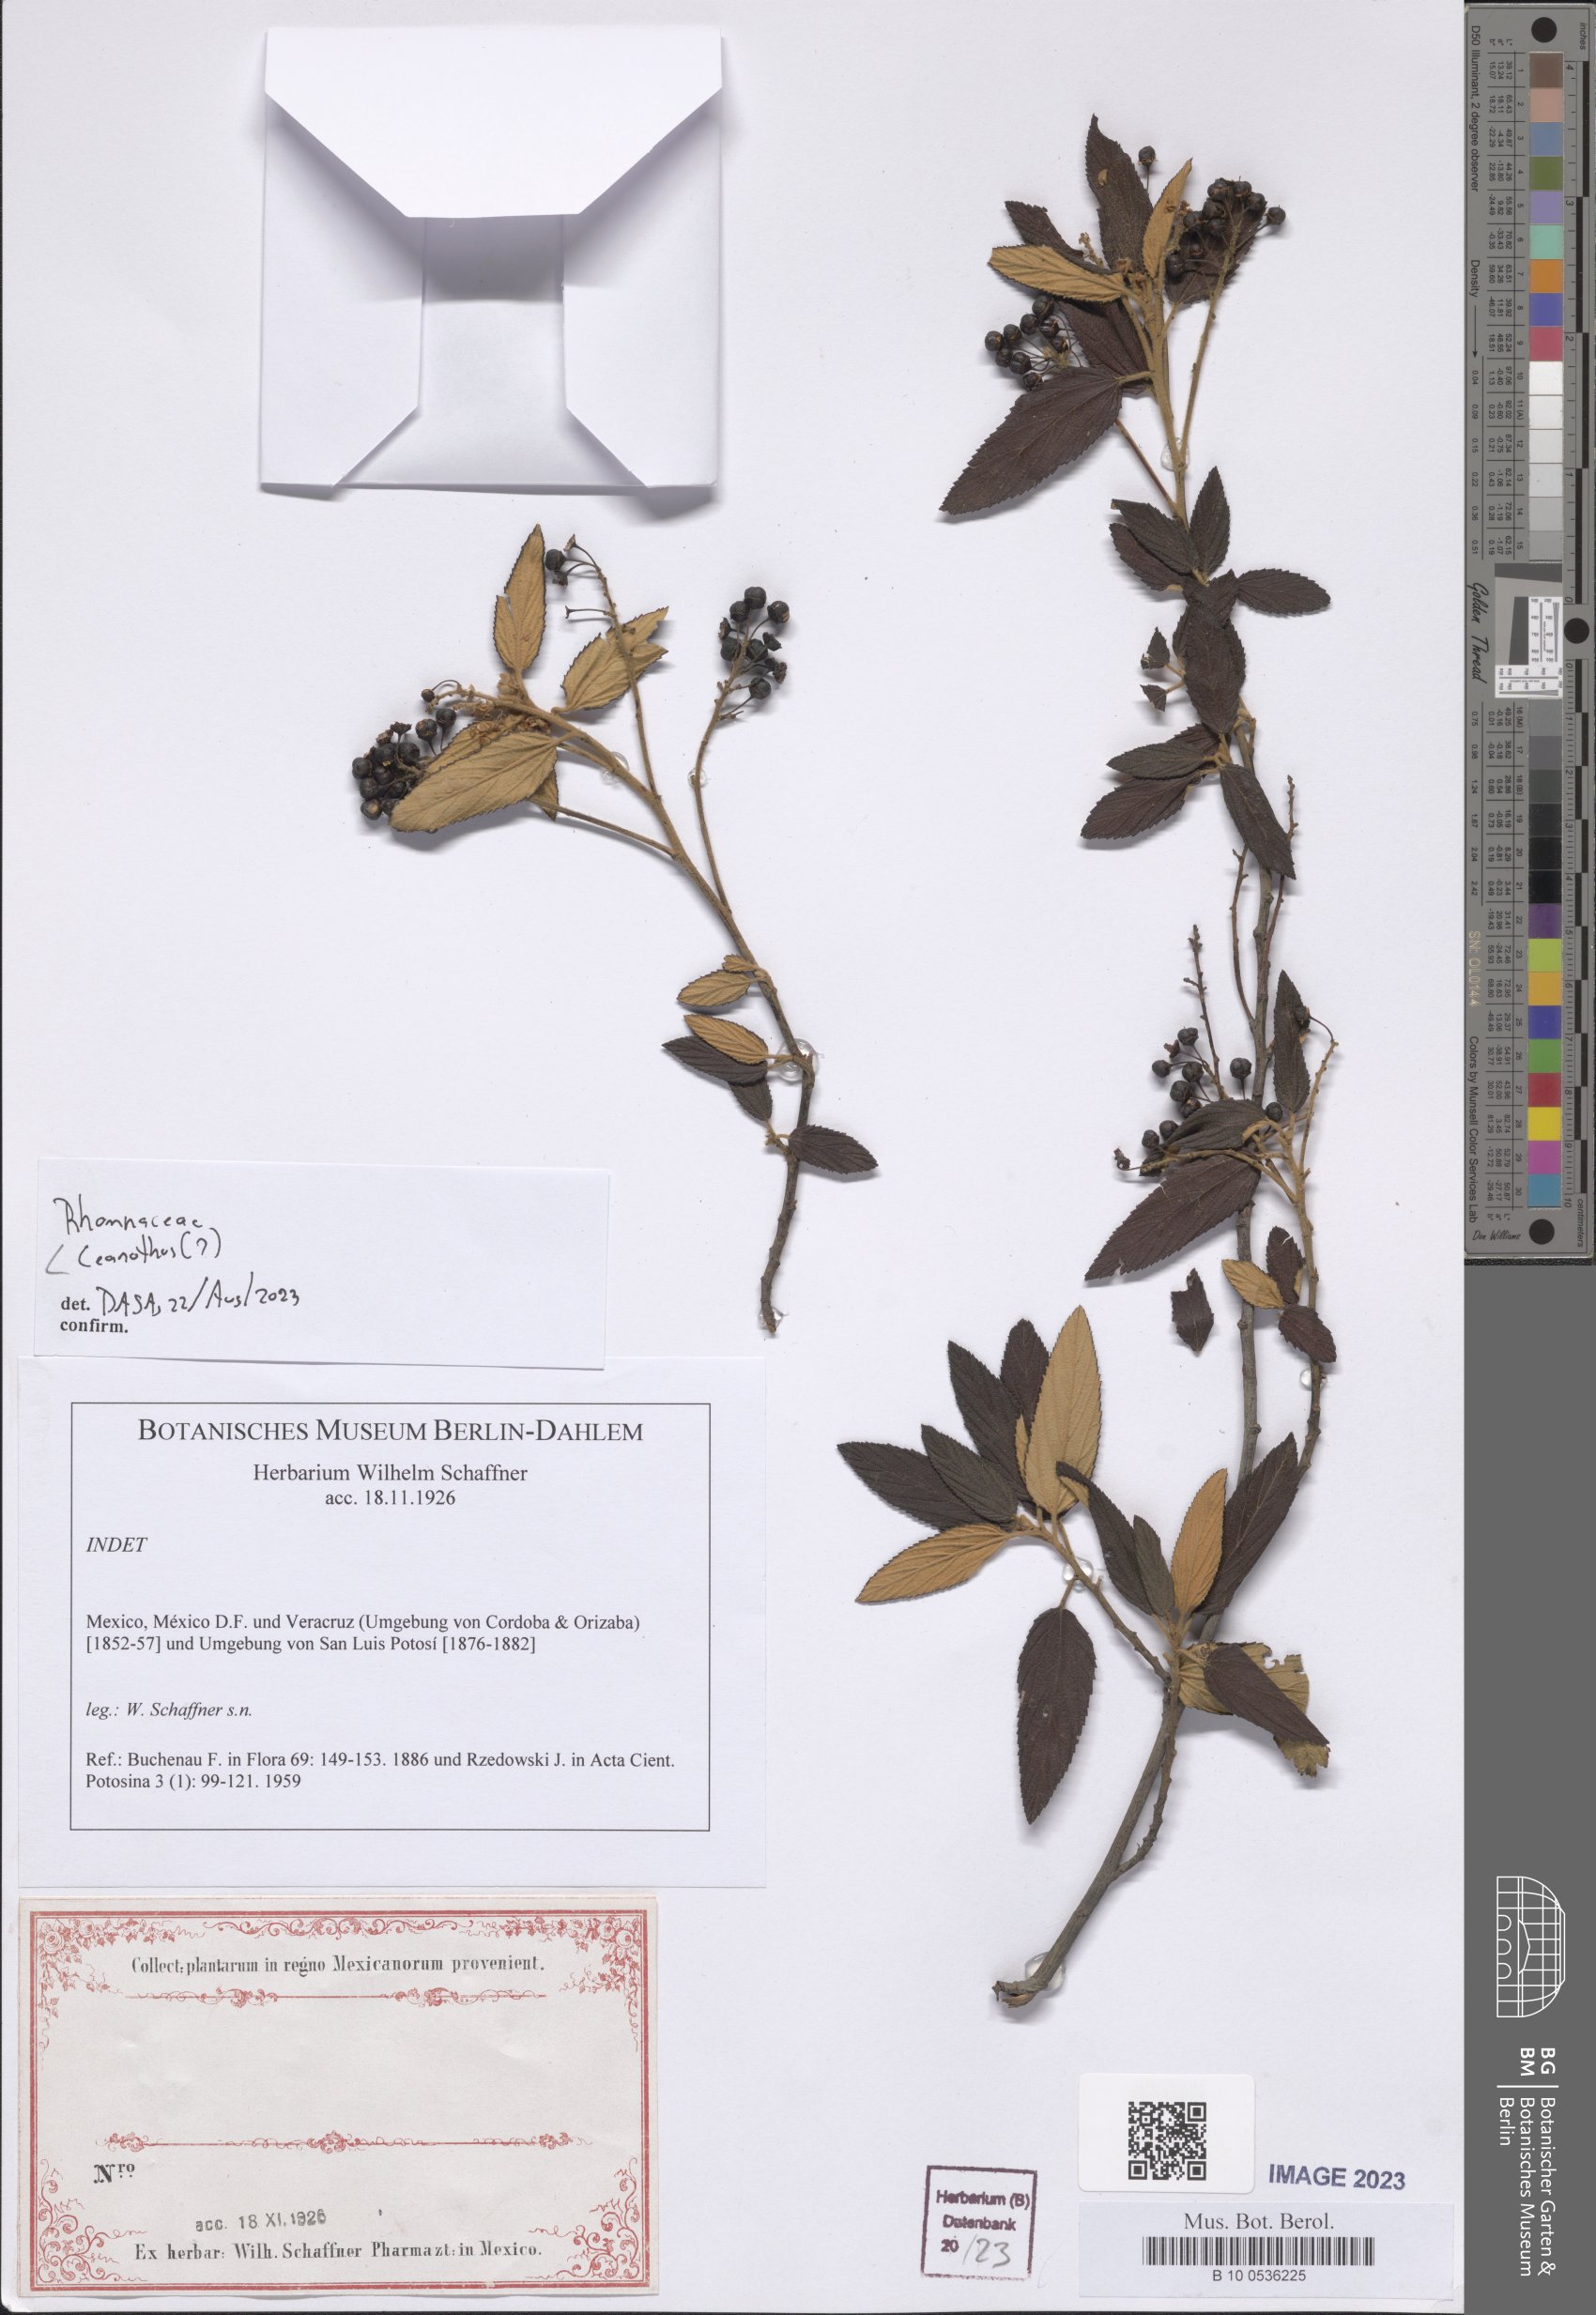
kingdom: Plantae
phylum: Tracheophyta
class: Magnoliopsida
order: Rosales
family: Rhamnaceae
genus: Ceanothus
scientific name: Ceanothus
